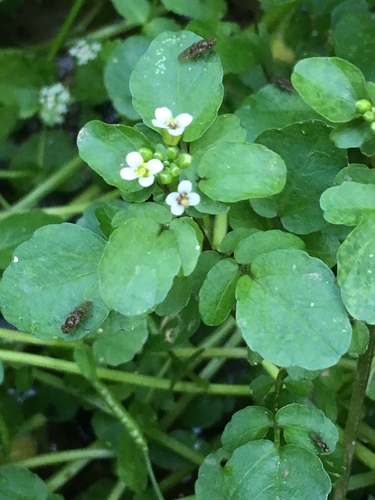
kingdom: Plantae
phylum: Tracheophyta
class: Magnoliopsida
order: Brassicales
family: Brassicaceae
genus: Nasturtium
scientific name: Nasturtium officinale
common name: Watercress
